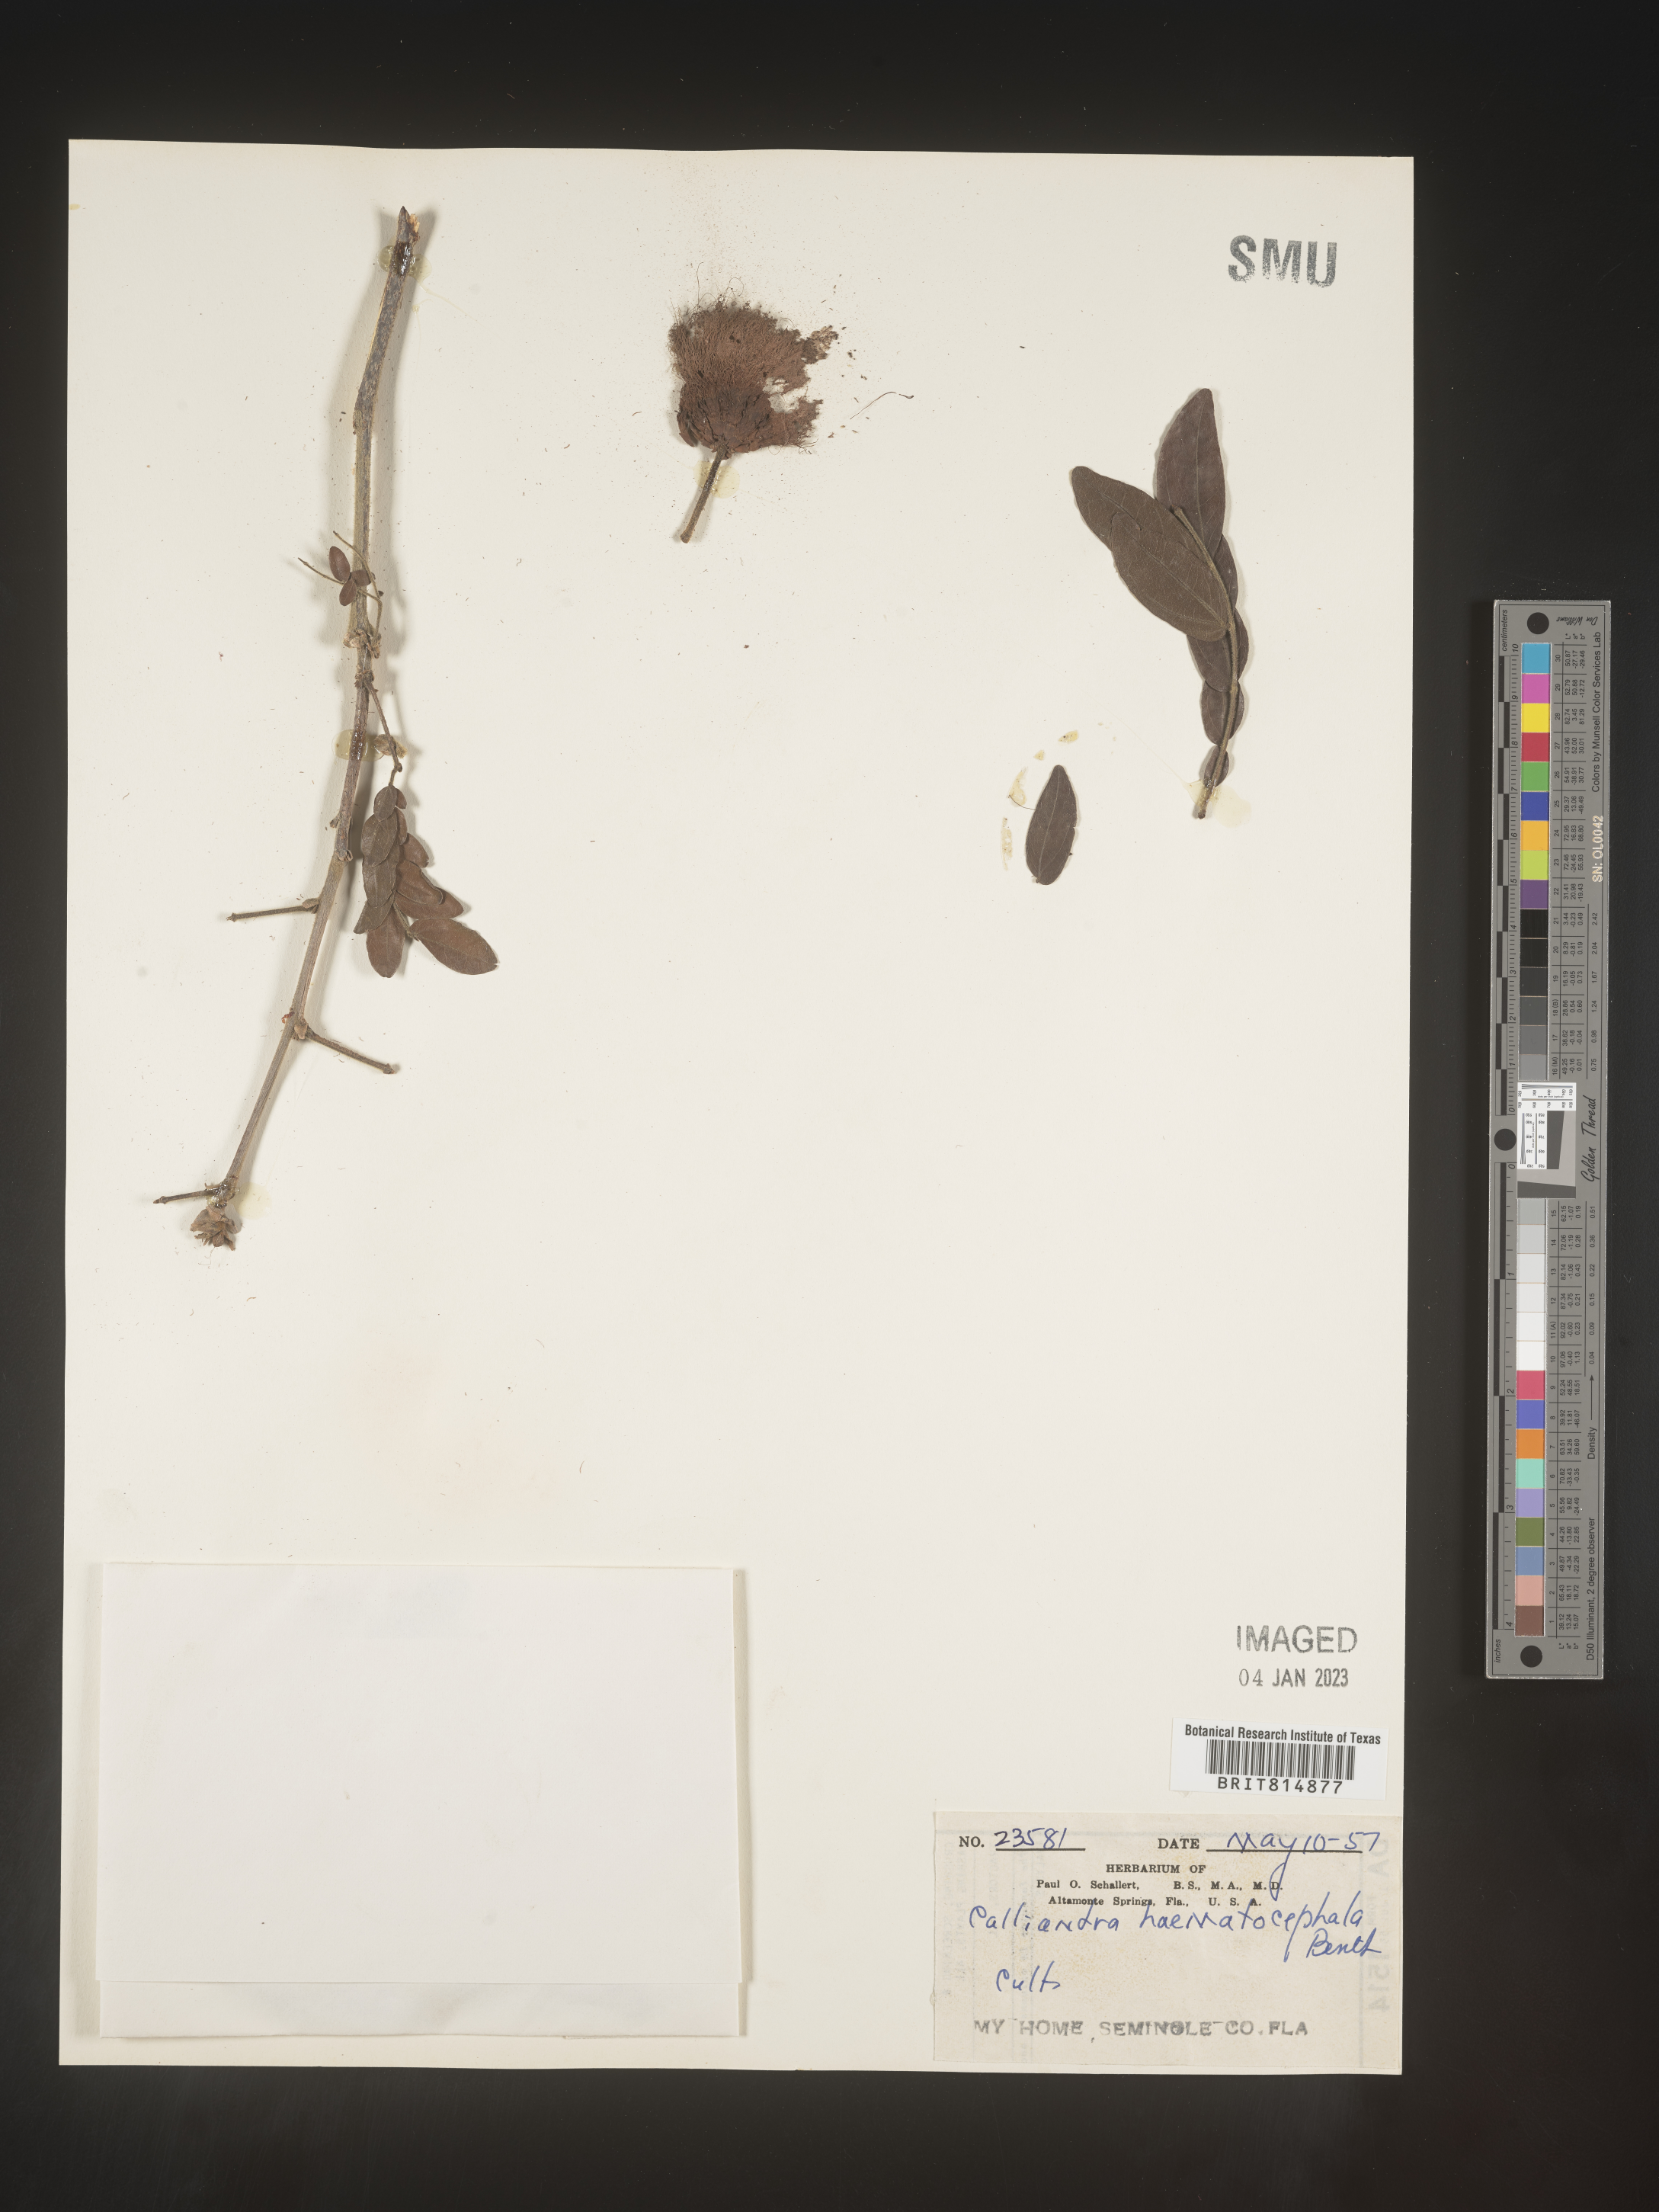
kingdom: Plantae
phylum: Tracheophyta
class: Magnoliopsida
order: Fabales
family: Fabaceae
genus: Calliandra
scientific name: Calliandra
